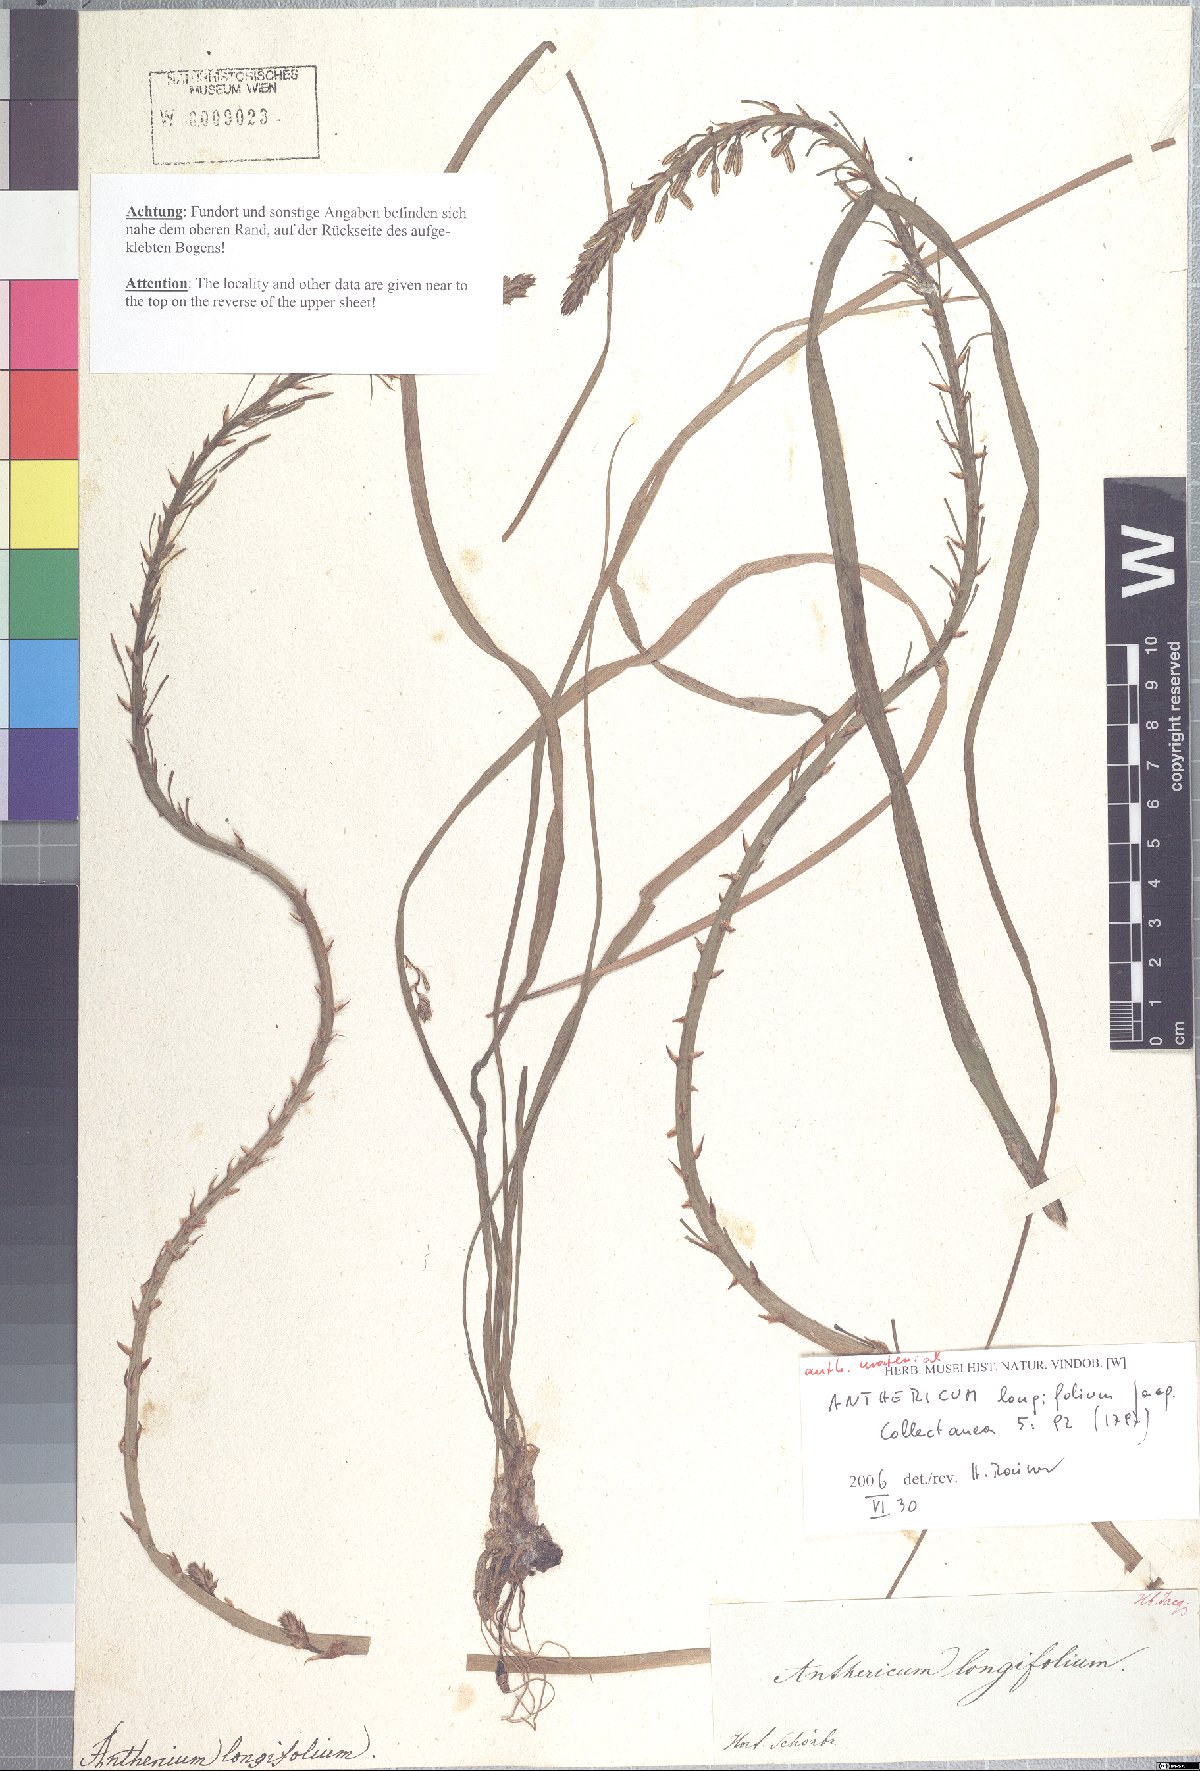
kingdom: Plantae
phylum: Tracheophyta
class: Liliopsida
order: Asparagales
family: Asphodelaceae
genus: Trachyandra
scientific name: Trachyandra ciliata
